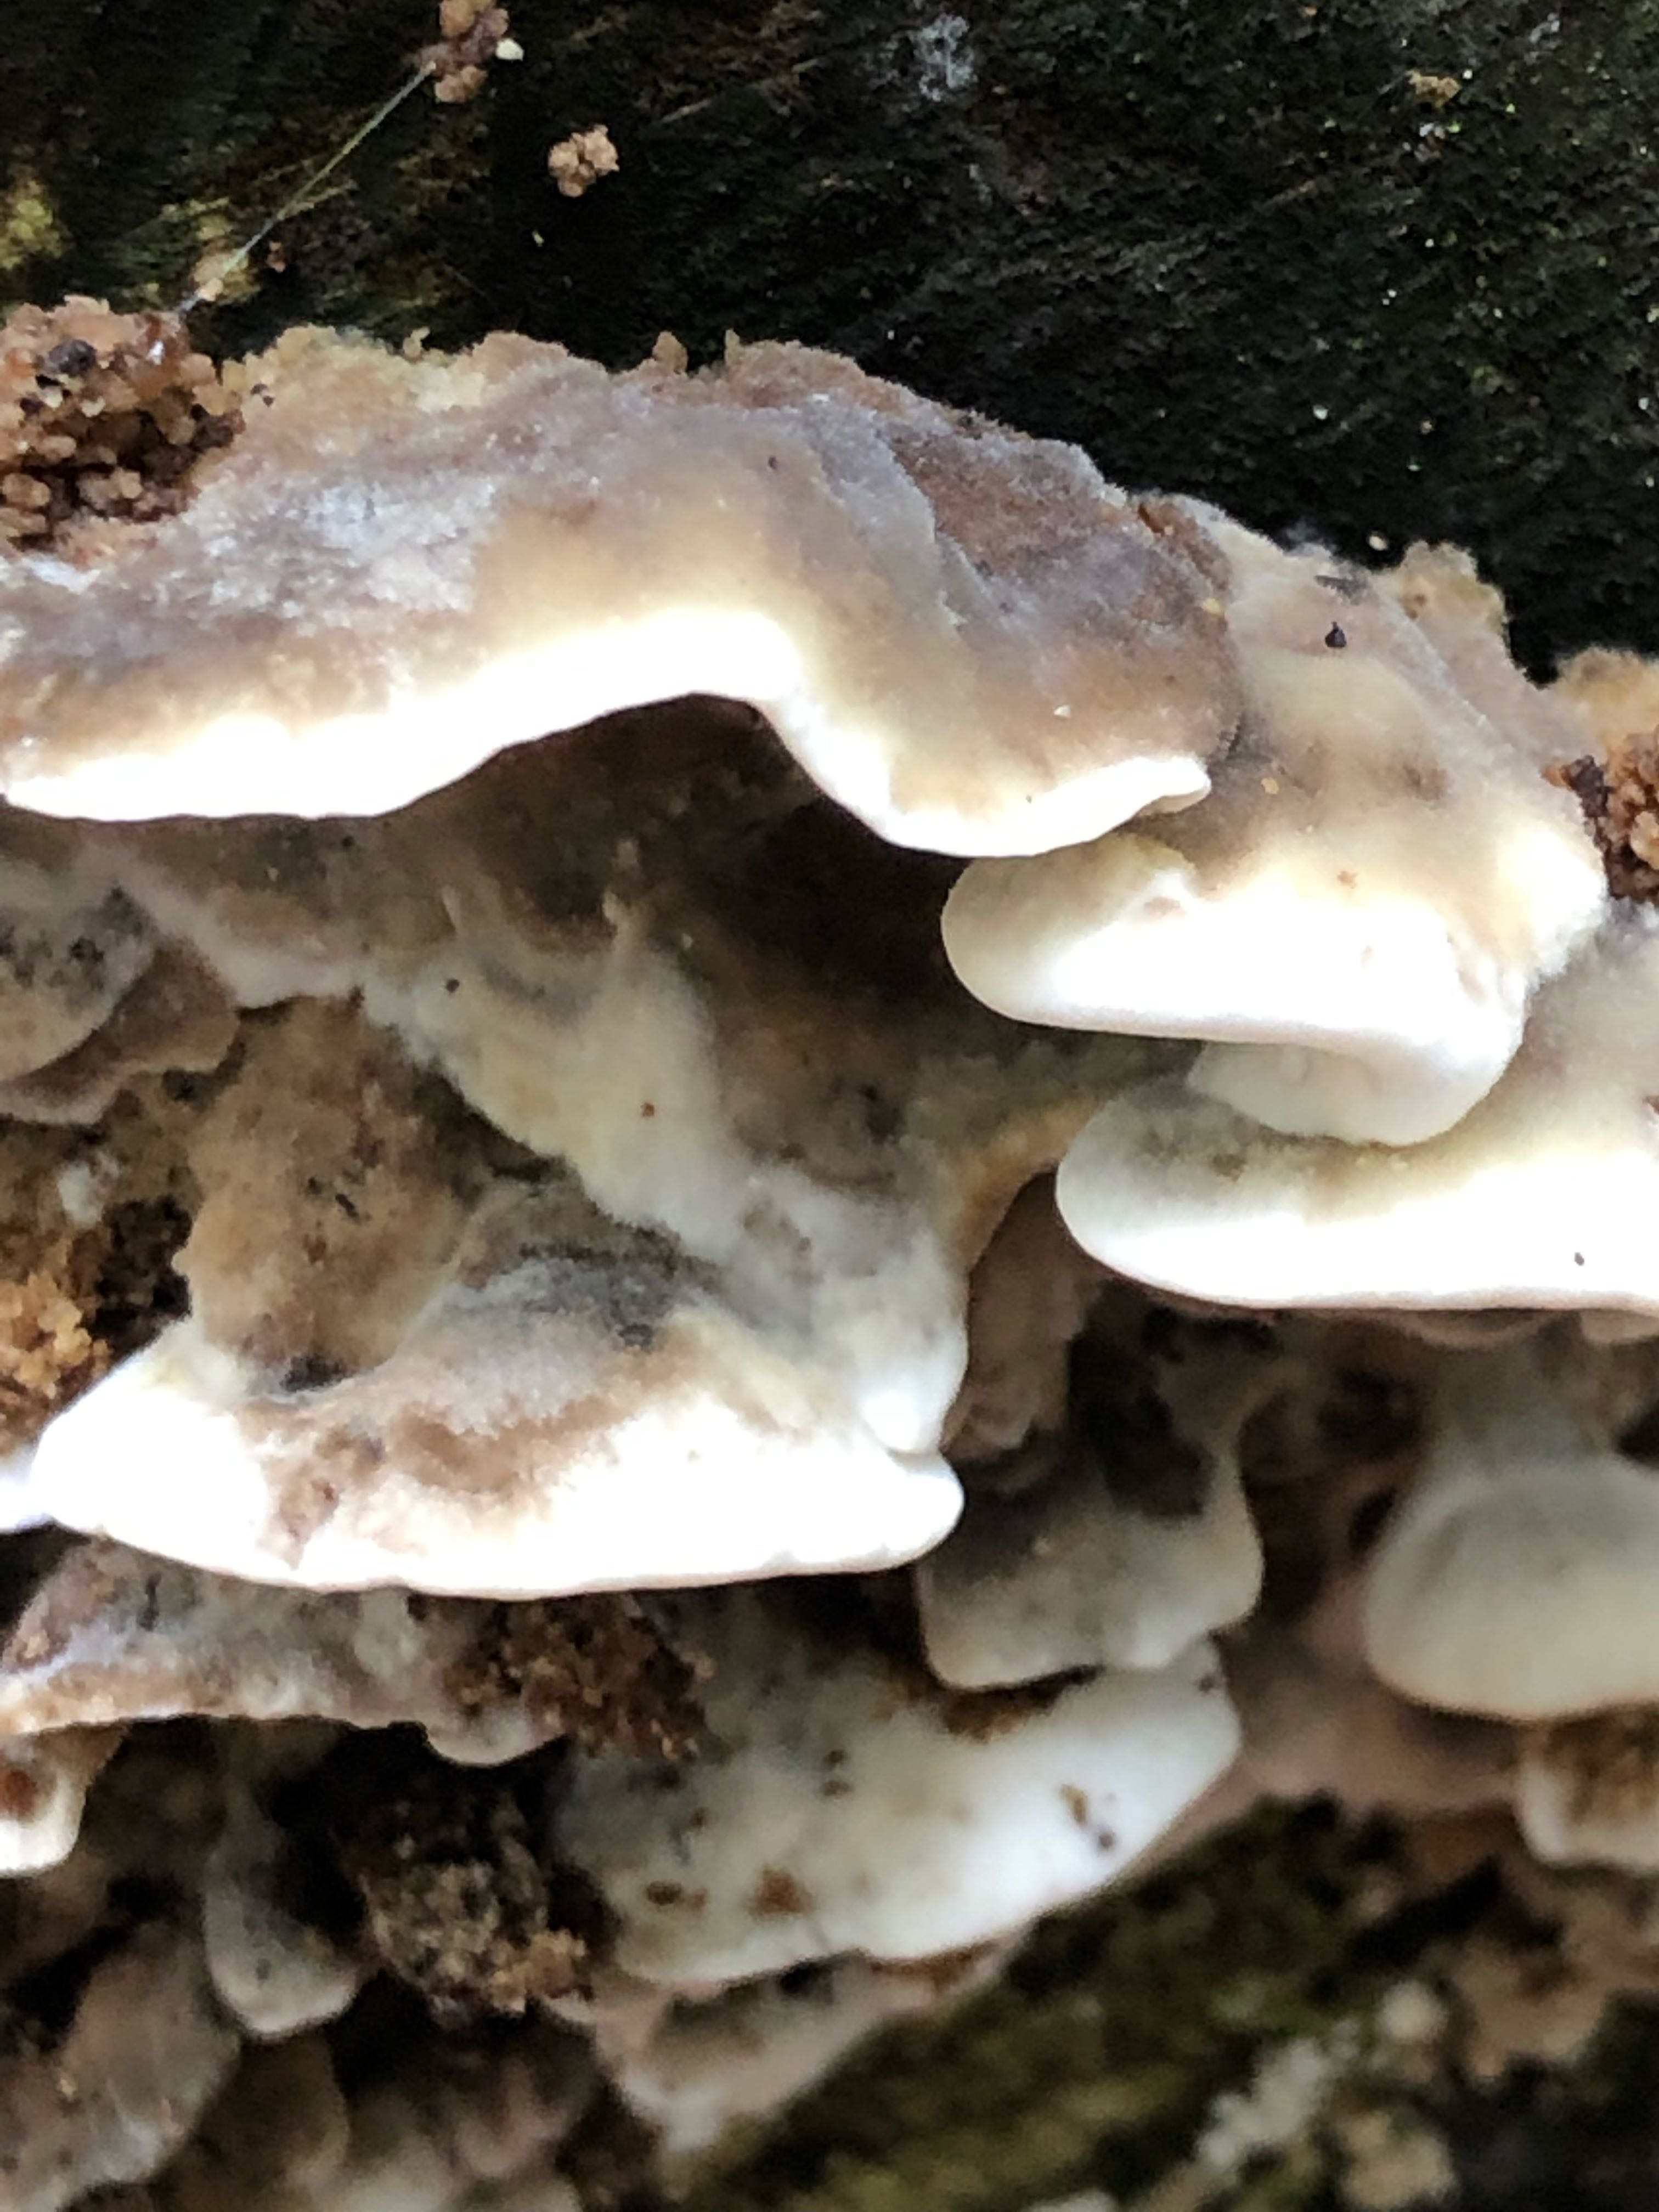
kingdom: Fungi
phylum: Basidiomycota
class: Agaricomycetes
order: Polyporales
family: Phanerochaetaceae
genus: Bjerkandera
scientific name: Bjerkandera adusta
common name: sveden sodporesvamp
